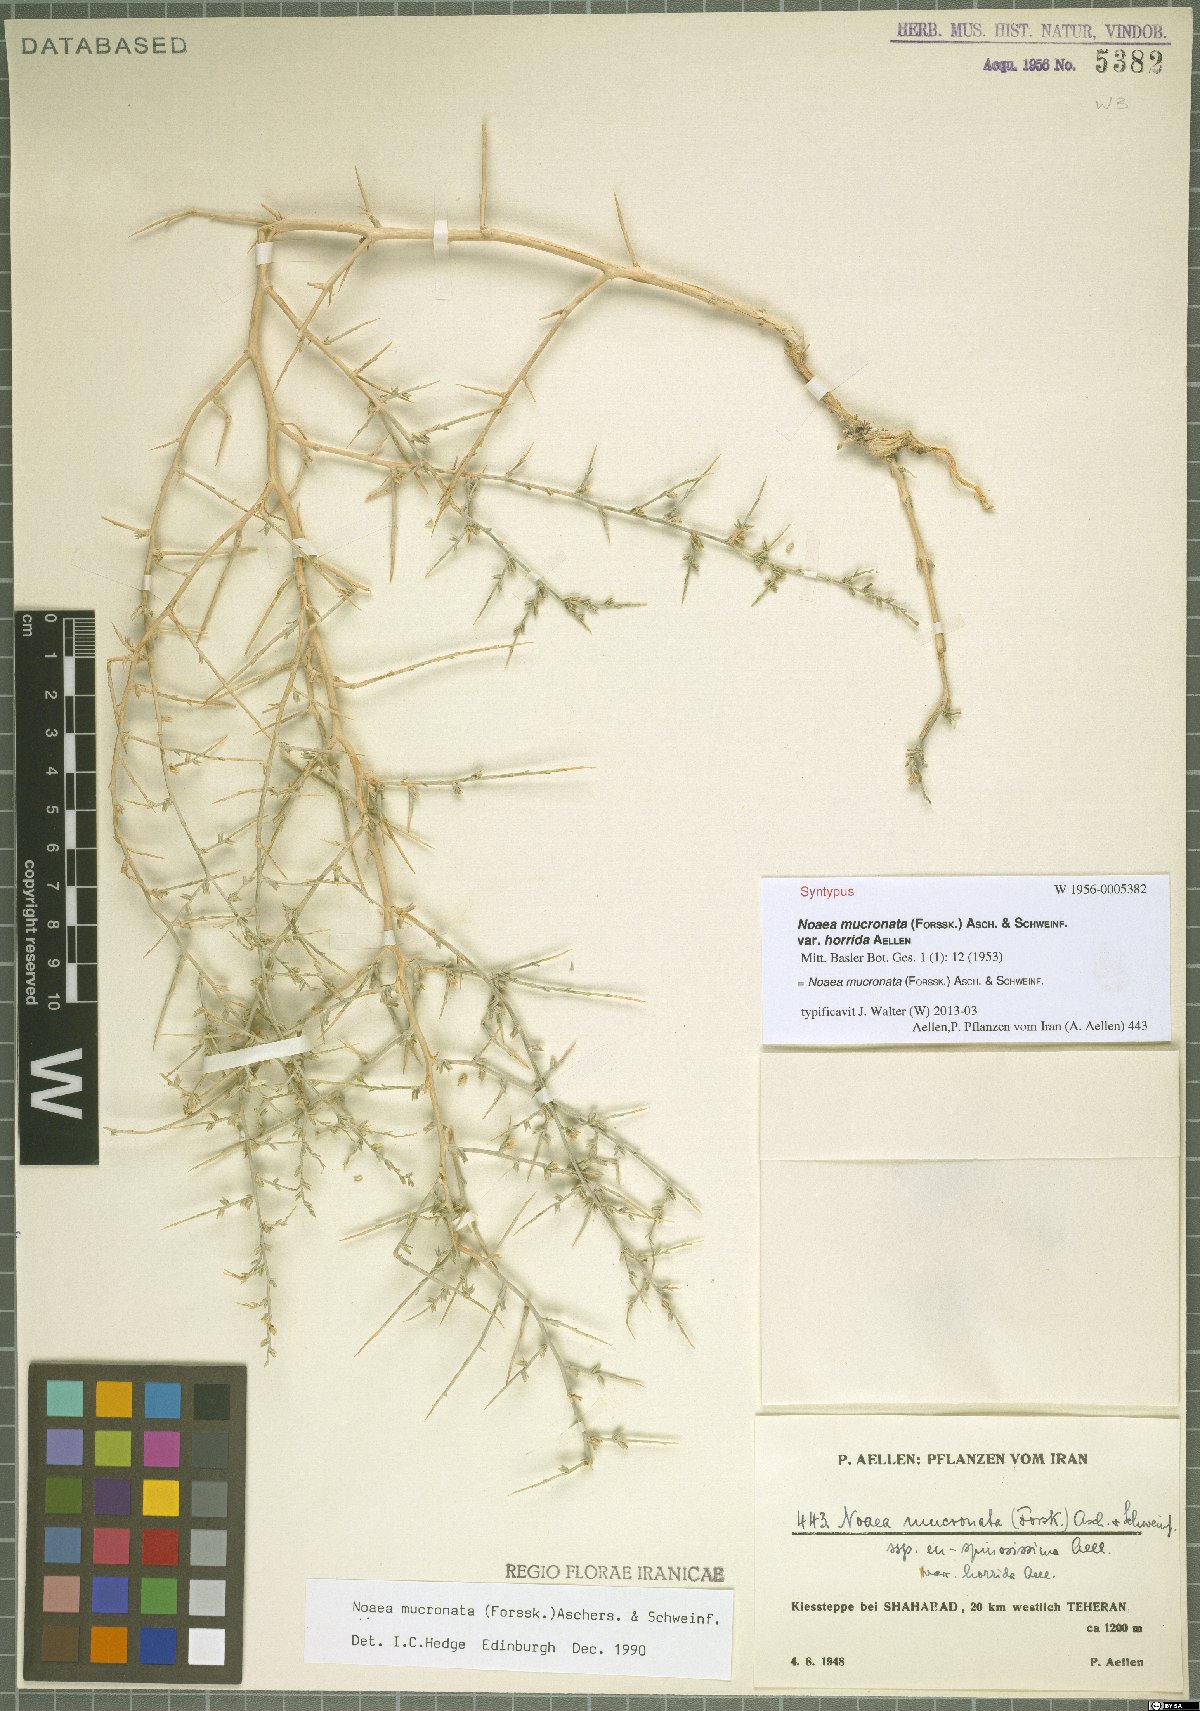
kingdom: Plantae
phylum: Tracheophyta
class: Magnoliopsida
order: Caryophyllales
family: Amaranthaceae
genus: Noaea
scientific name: Noaea mucronata
